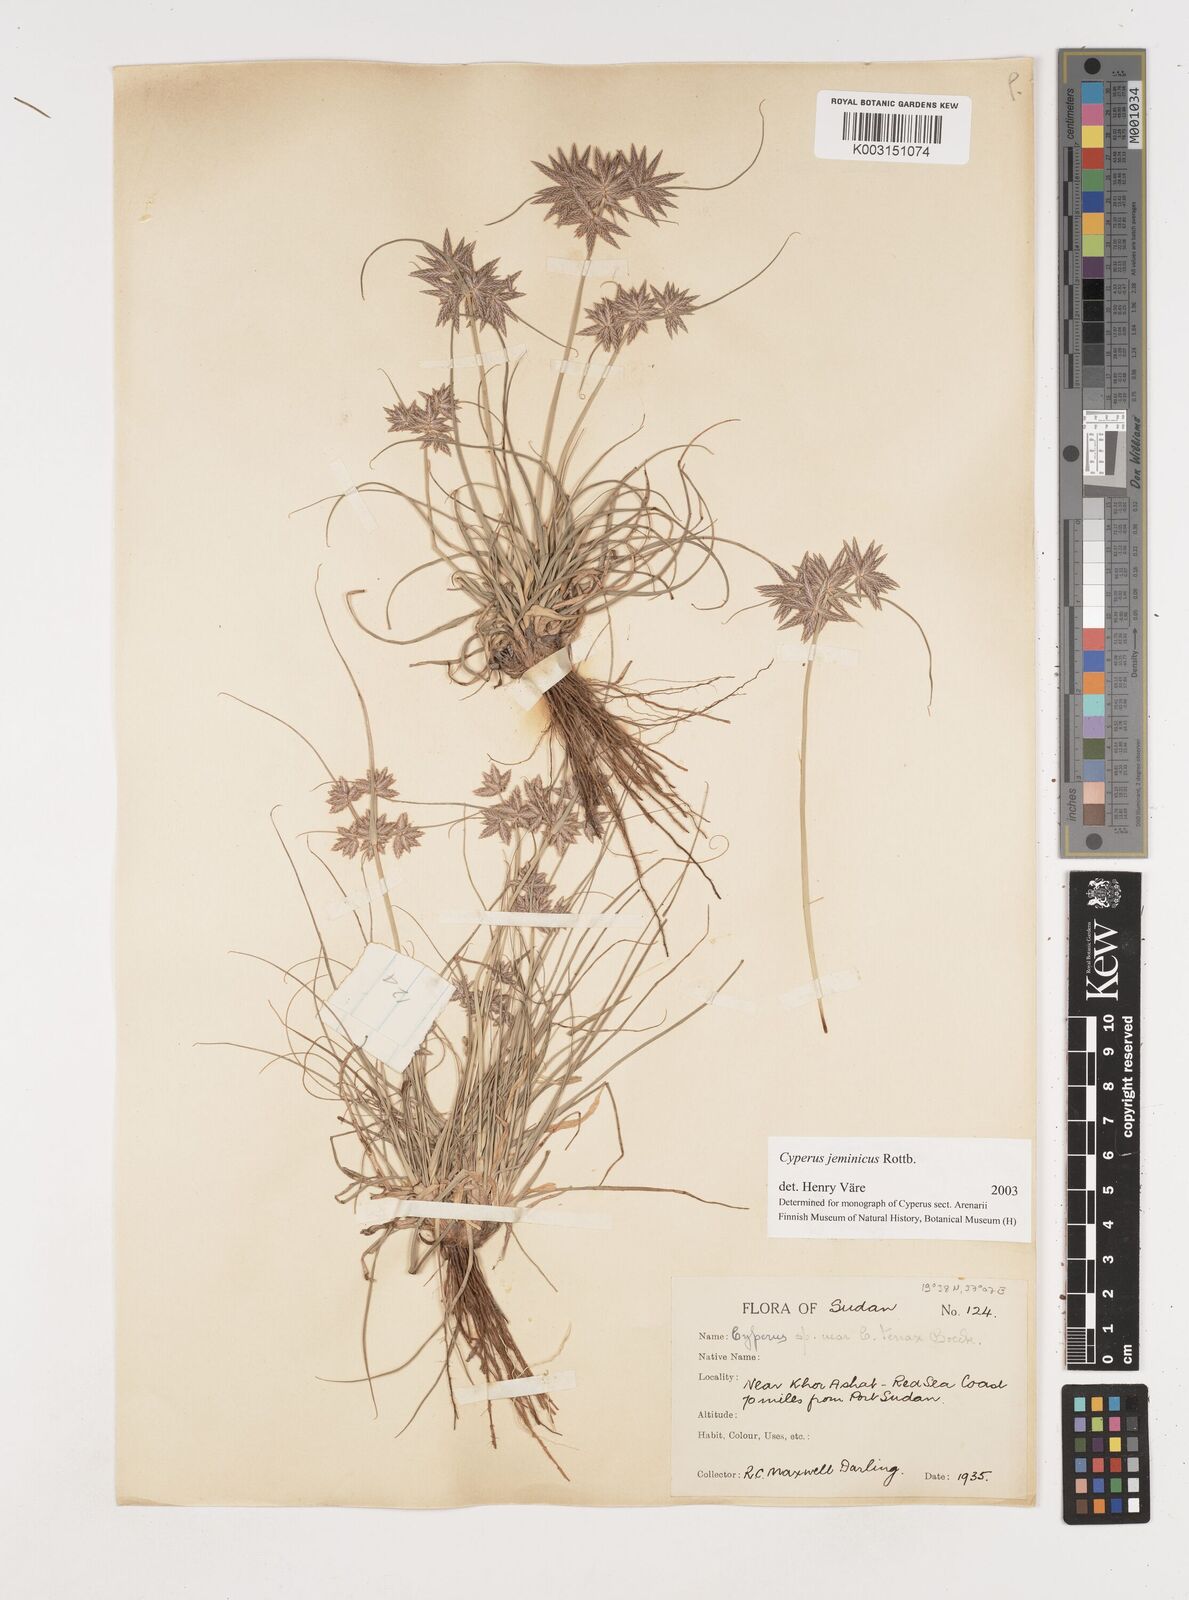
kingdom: Plantae
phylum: Tracheophyta
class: Liliopsida
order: Poales
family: Cyperaceae
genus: Cyperus
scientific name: Cyperus jeminicus
